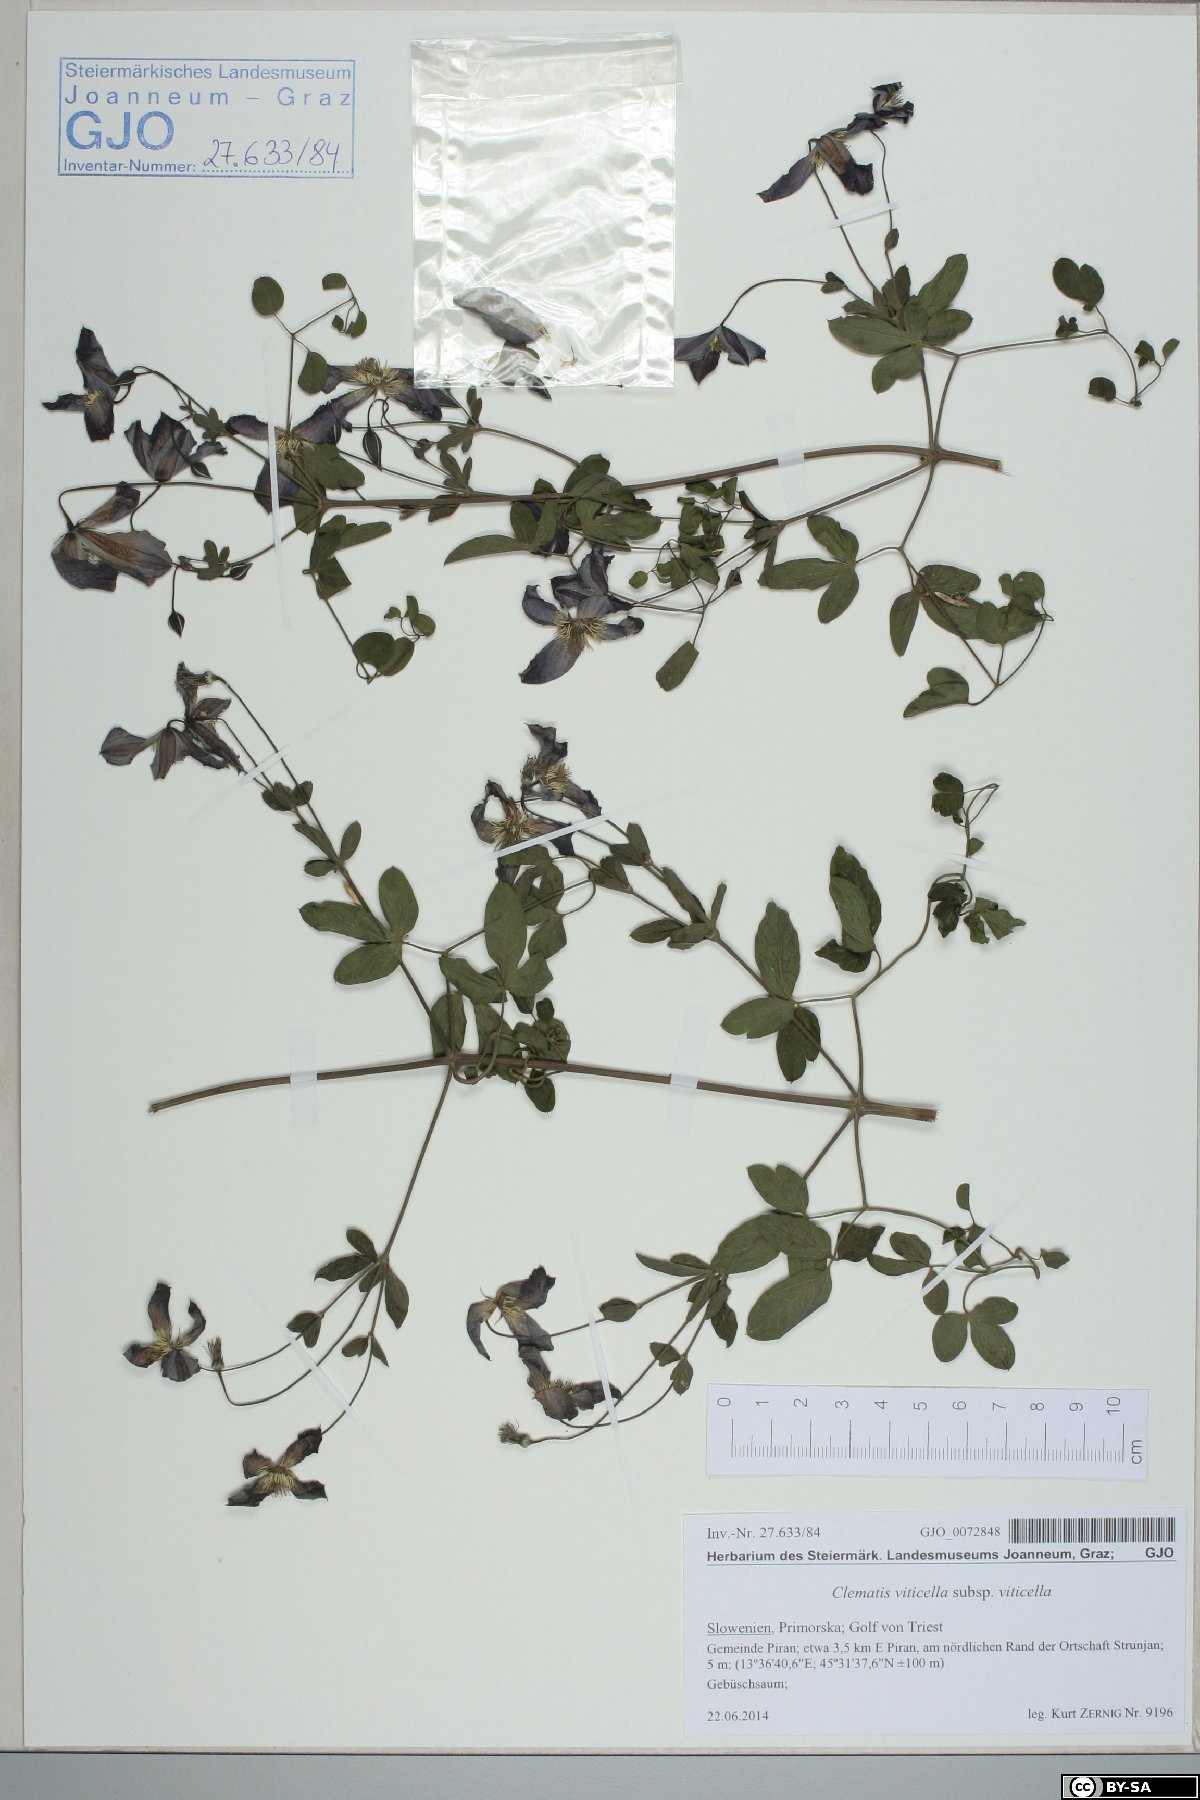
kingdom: Plantae
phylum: Tracheophyta
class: Magnoliopsida
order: Ranunculales
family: Ranunculaceae
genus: Clematis
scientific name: Clematis viticella
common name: Purple clematis
